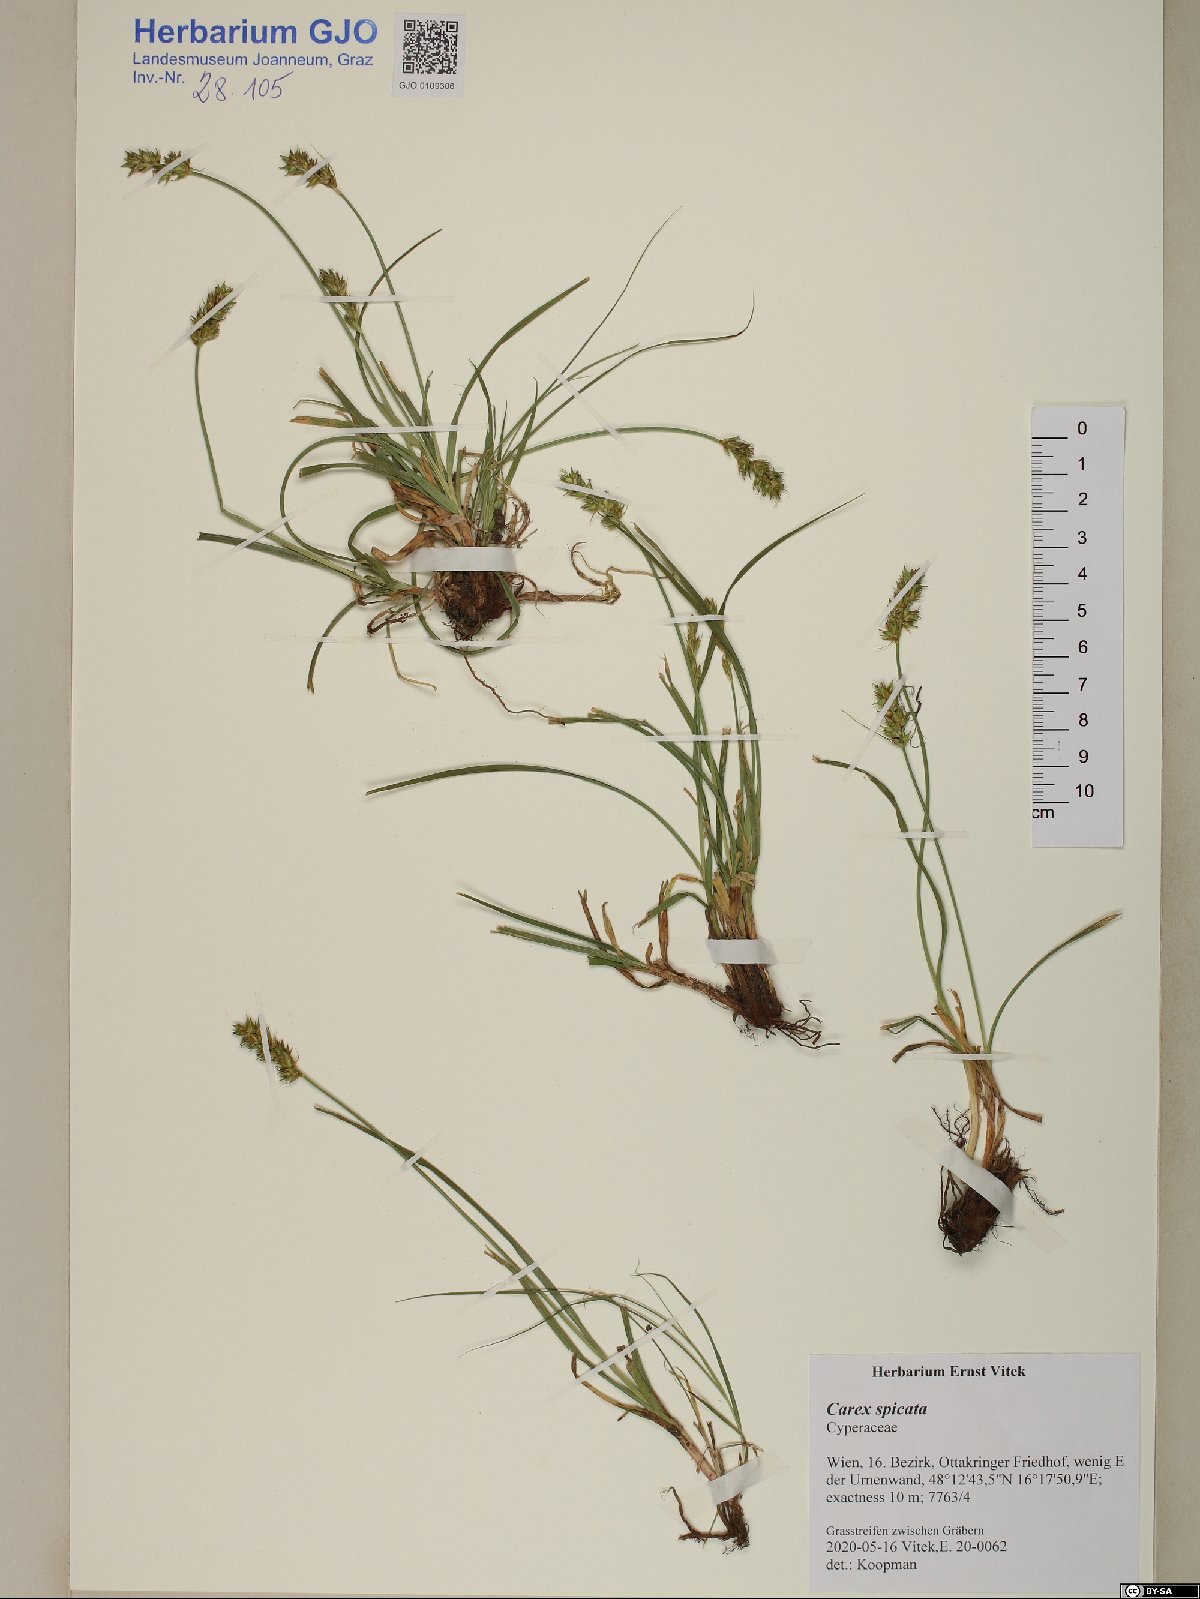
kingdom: Plantae
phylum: Tracheophyta
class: Liliopsida
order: Poales
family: Cyperaceae
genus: Carex
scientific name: Carex spicata
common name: Spiked sedge
